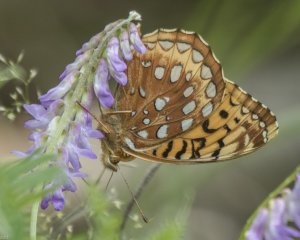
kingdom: Animalia
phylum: Arthropoda
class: Insecta
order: Lepidoptera
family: Nymphalidae
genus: Speyeria
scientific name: Speyeria cybele
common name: Great Spangled Fritillary
